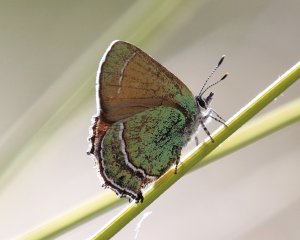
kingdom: Animalia
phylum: Arthropoda
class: Insecta
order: Lepidoptera
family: Lycaenidae
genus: Sandia
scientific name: Sandia mcfarlandi
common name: Sandia Hairstreak
